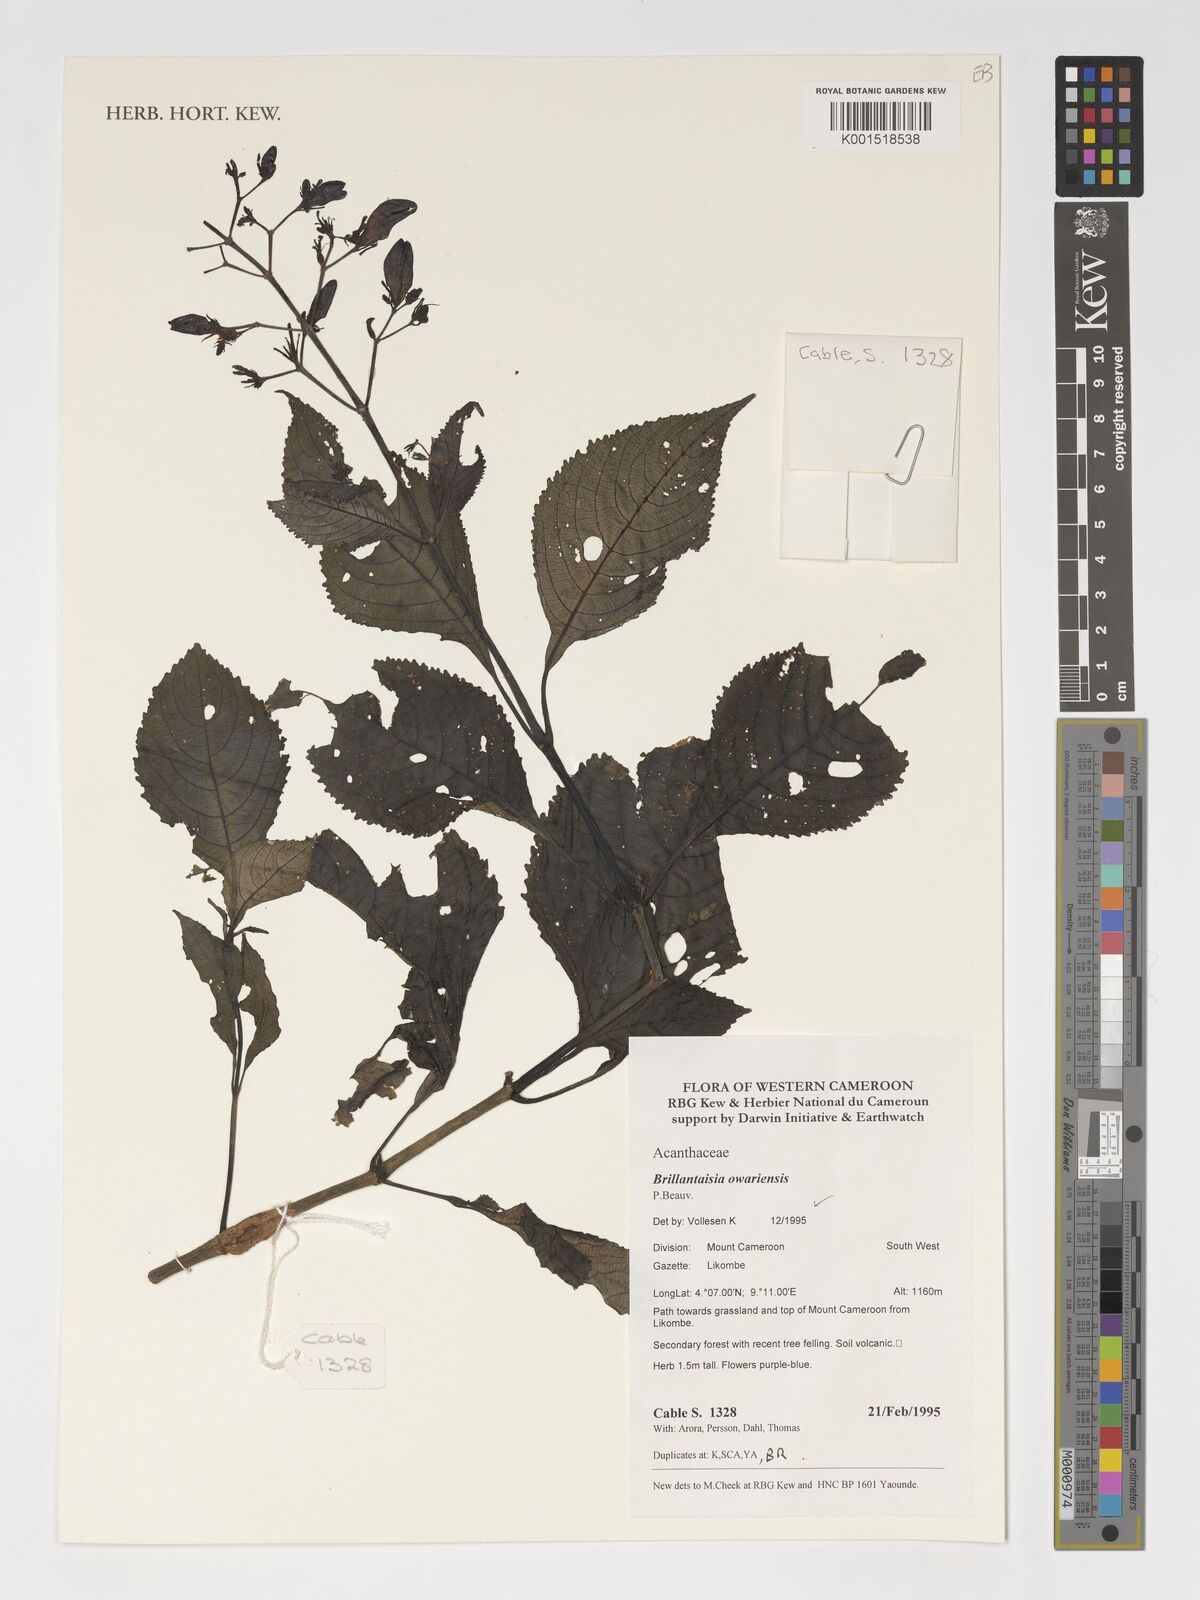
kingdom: Plantae
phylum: Tracheophyta
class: Magnoliopsida
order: Lamiales
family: Acanthaceae
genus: Brillantaisia
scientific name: Brillantaisia owariensis
